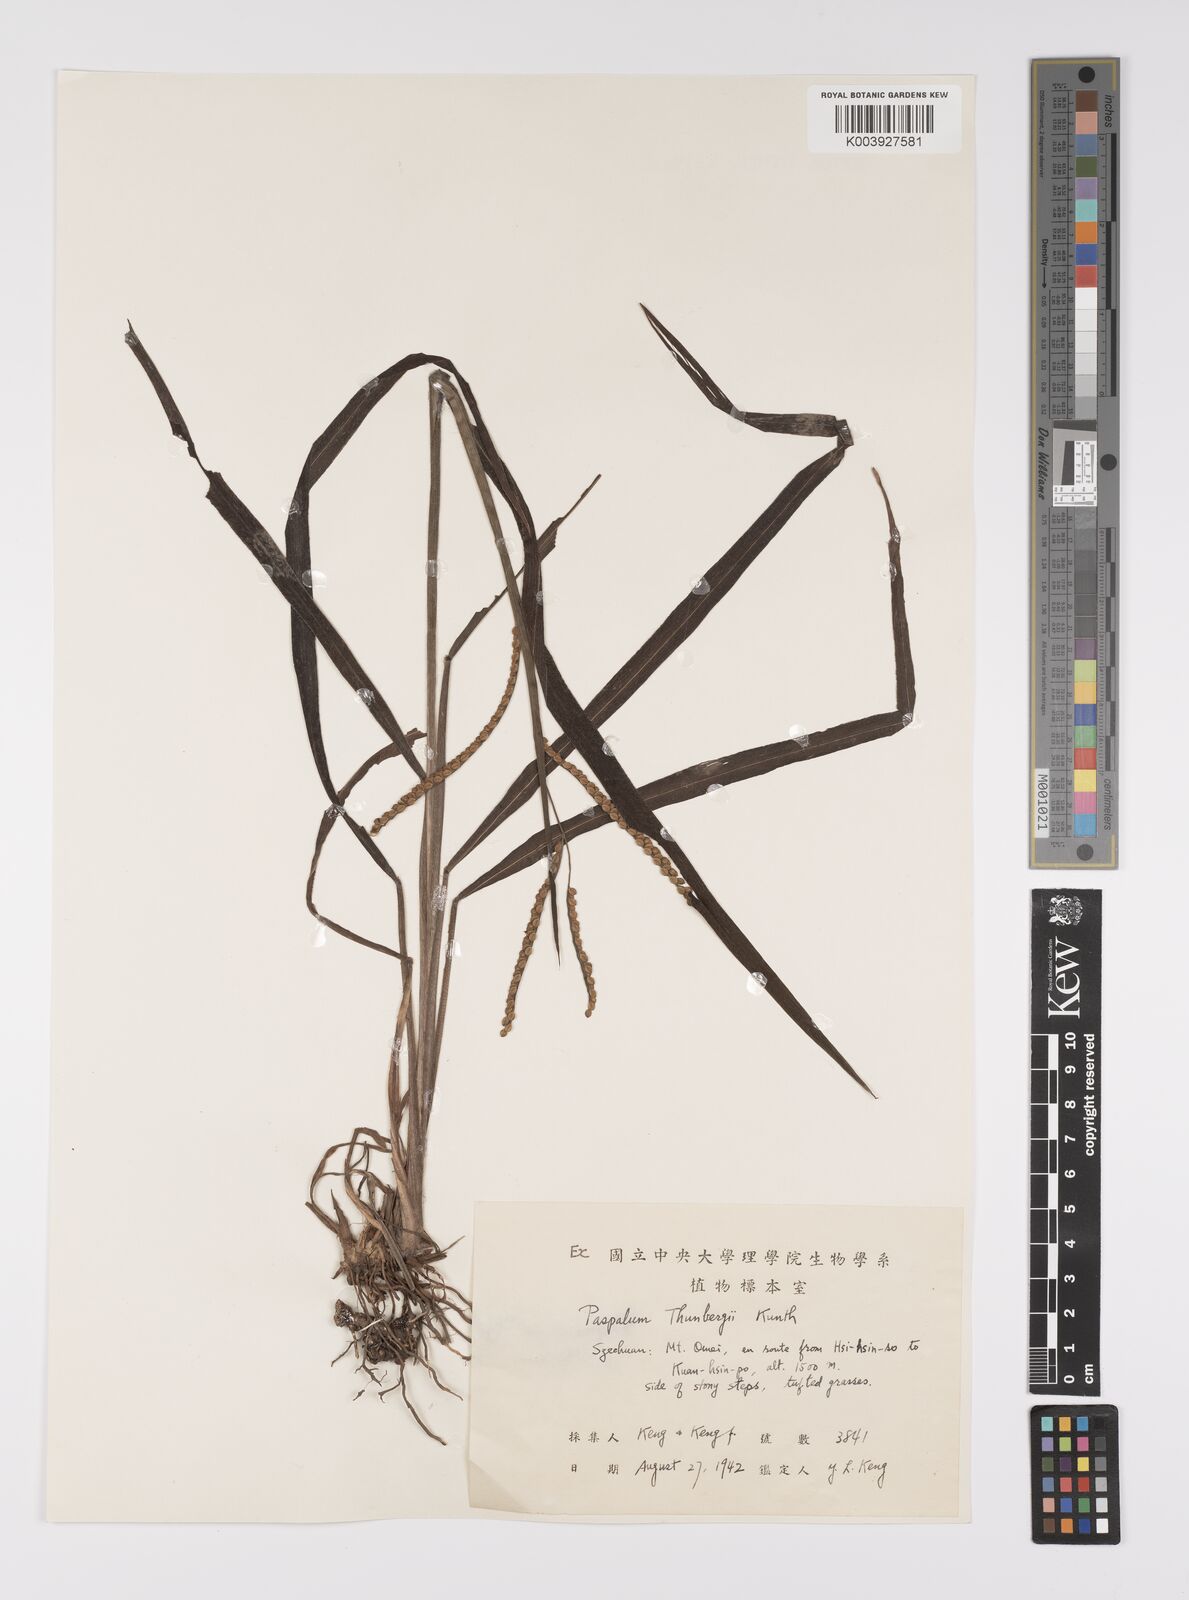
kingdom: Plantae
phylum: Tracheophyta
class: Liliopsida
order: Poales
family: Poaceae
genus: Paspalum
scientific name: Paspalum thunbergii
